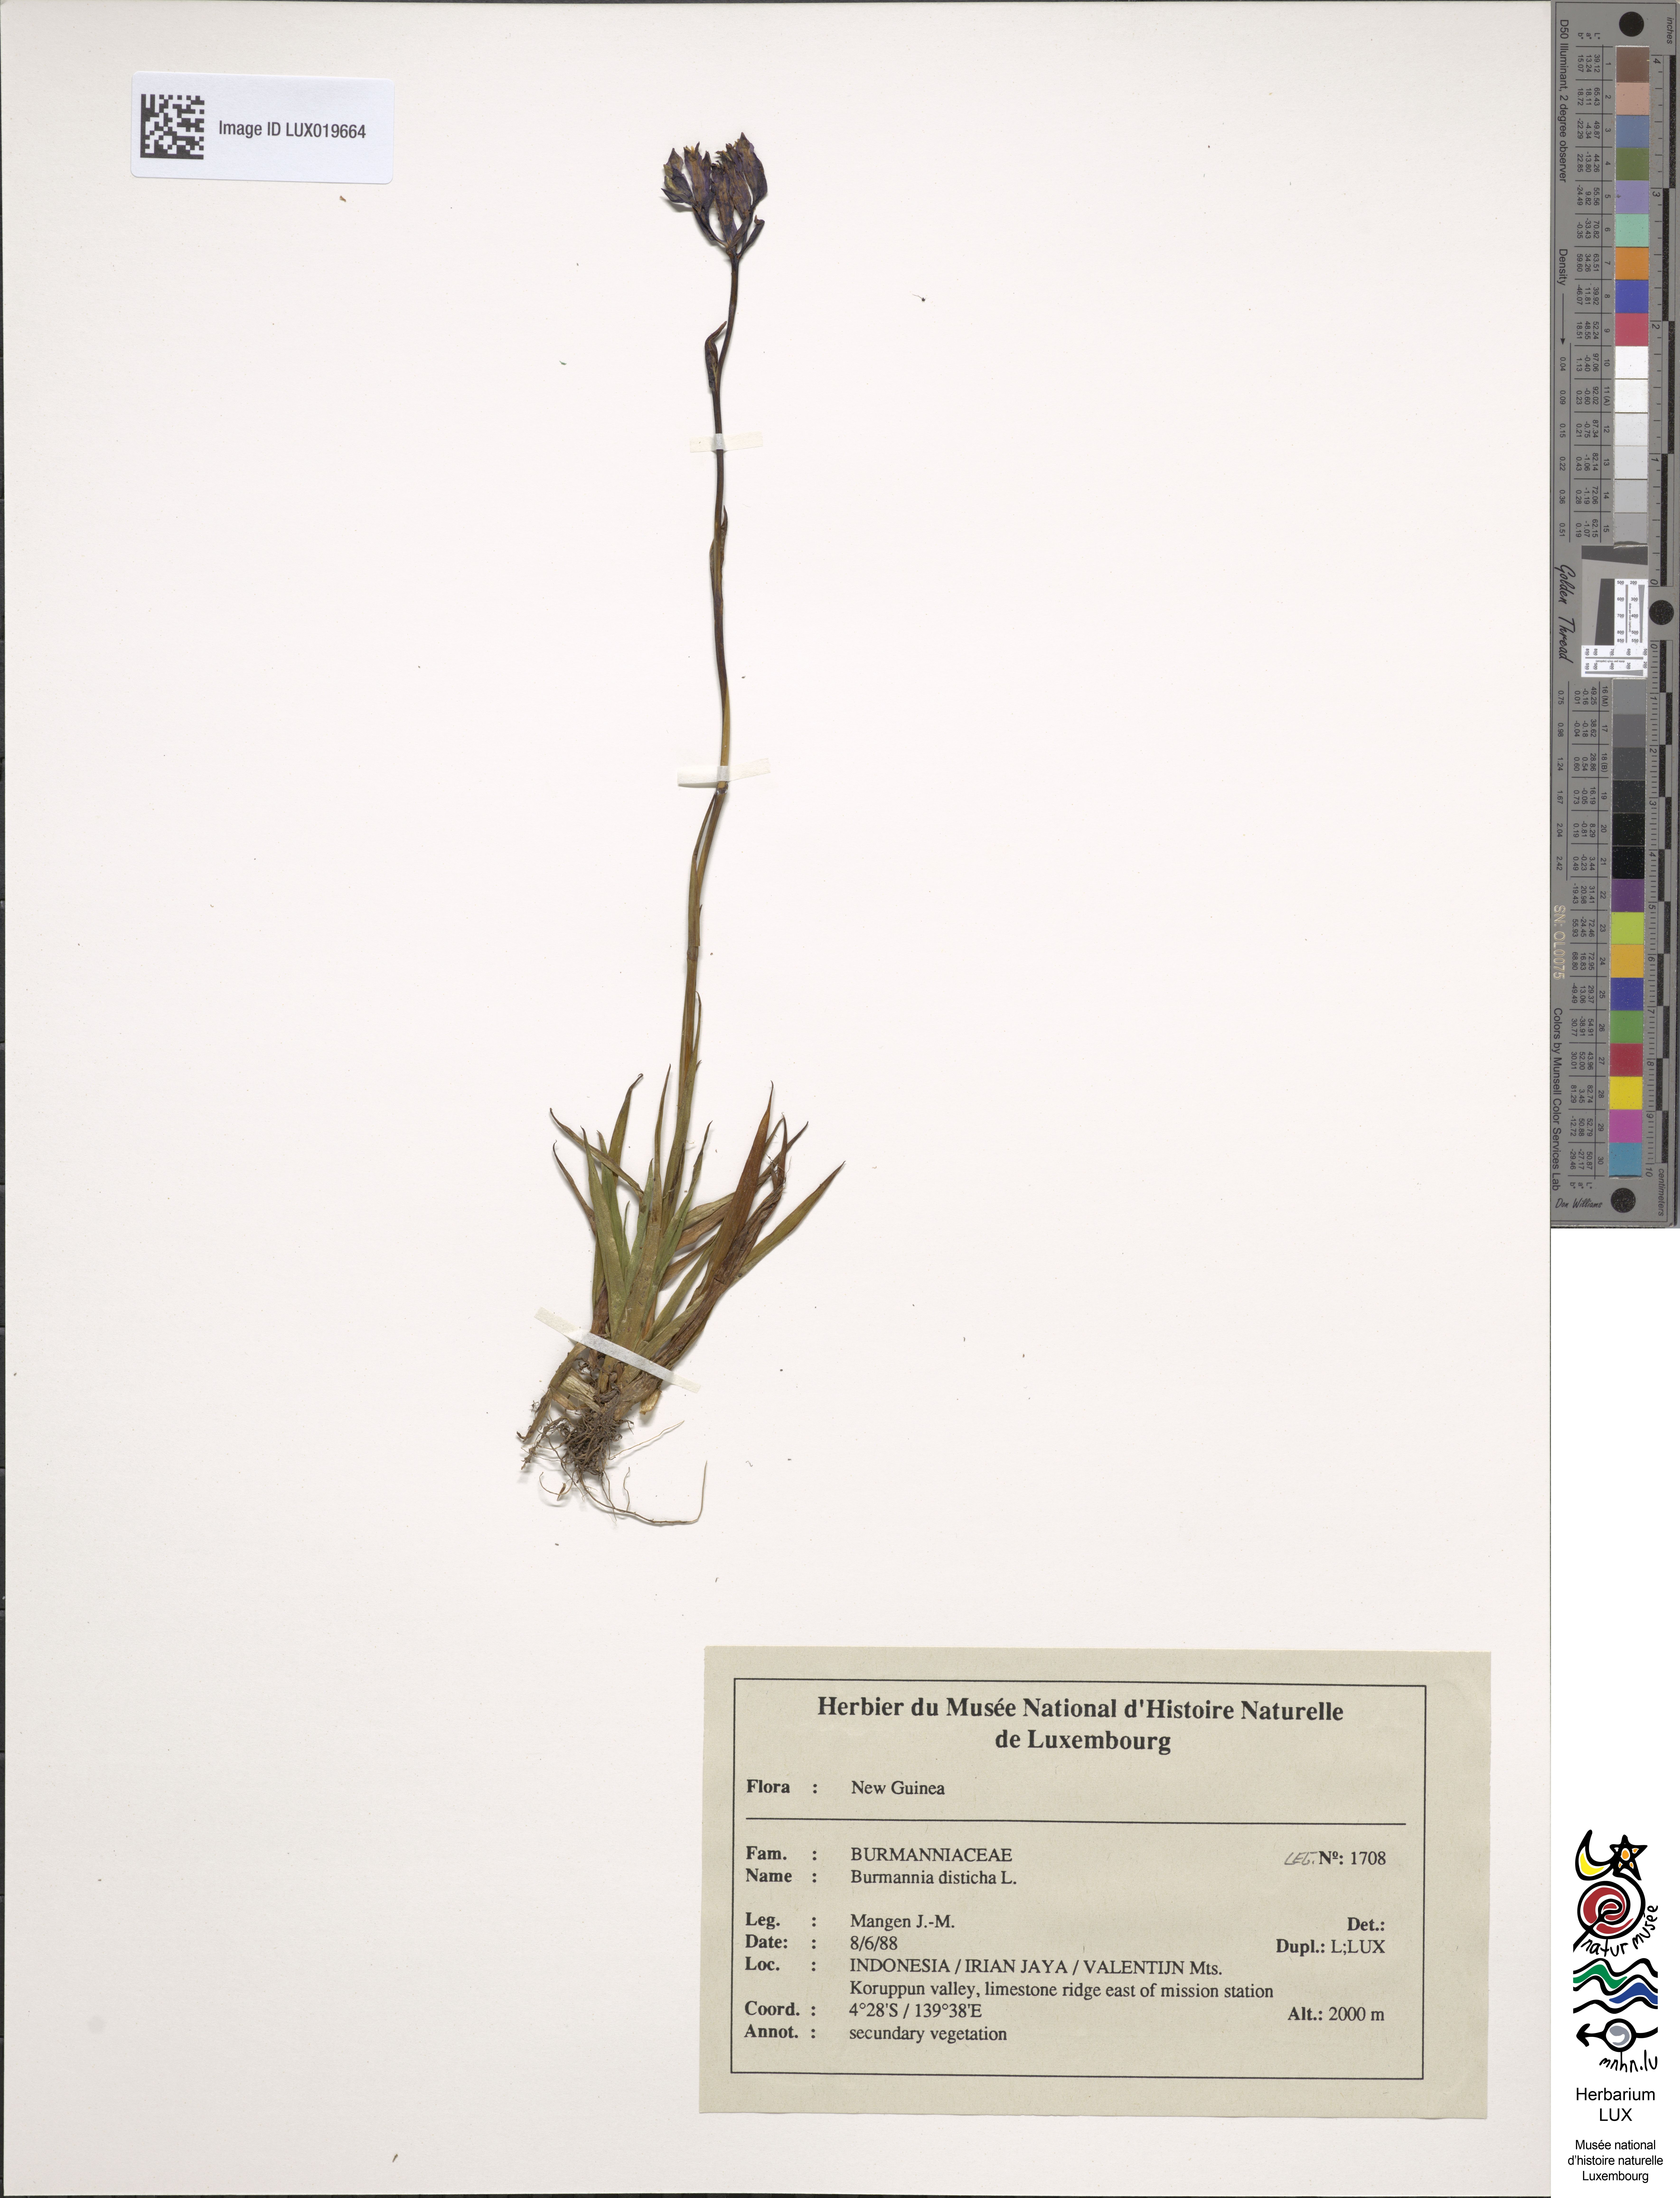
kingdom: Plantae
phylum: Tracheophyta
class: Liliopsida
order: Dioscoreales
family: Burmanniaceae
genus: Burmannia
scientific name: Burmannia disticha
